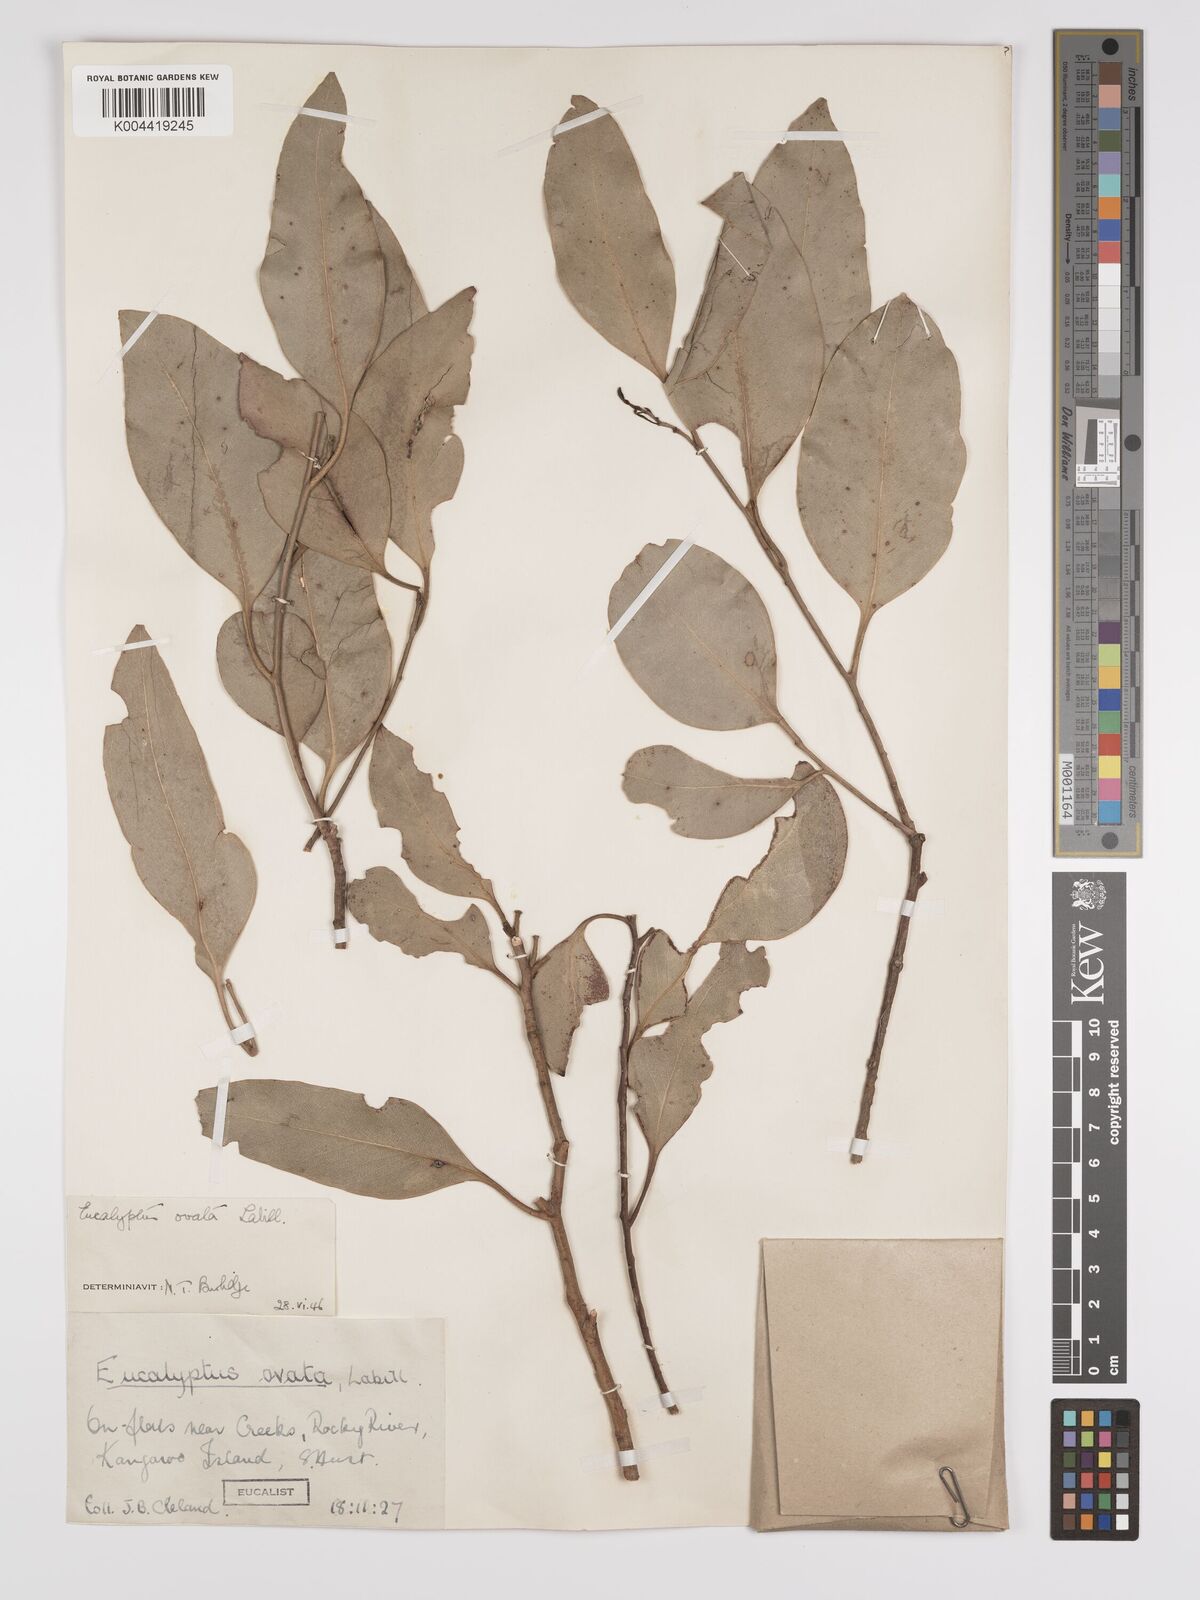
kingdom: Plantae
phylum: Tracheophyta
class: Magnoliopsida
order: Myrtales
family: Myrtaceae
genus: Eucalyptus
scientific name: Eucalyptus ovata
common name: Black-gum
